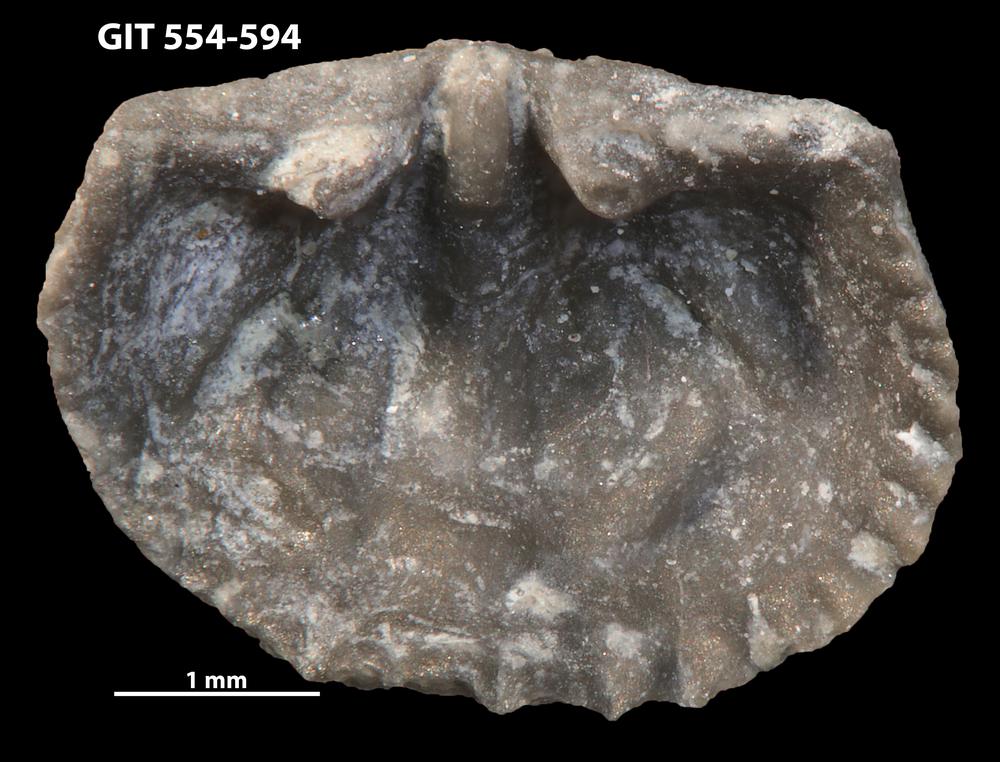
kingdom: Animalia
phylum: Brachiopoda
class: Rhynchonellata
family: Hesperorthidae
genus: Ptychopleurella
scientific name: Ptychopleurella transversa
